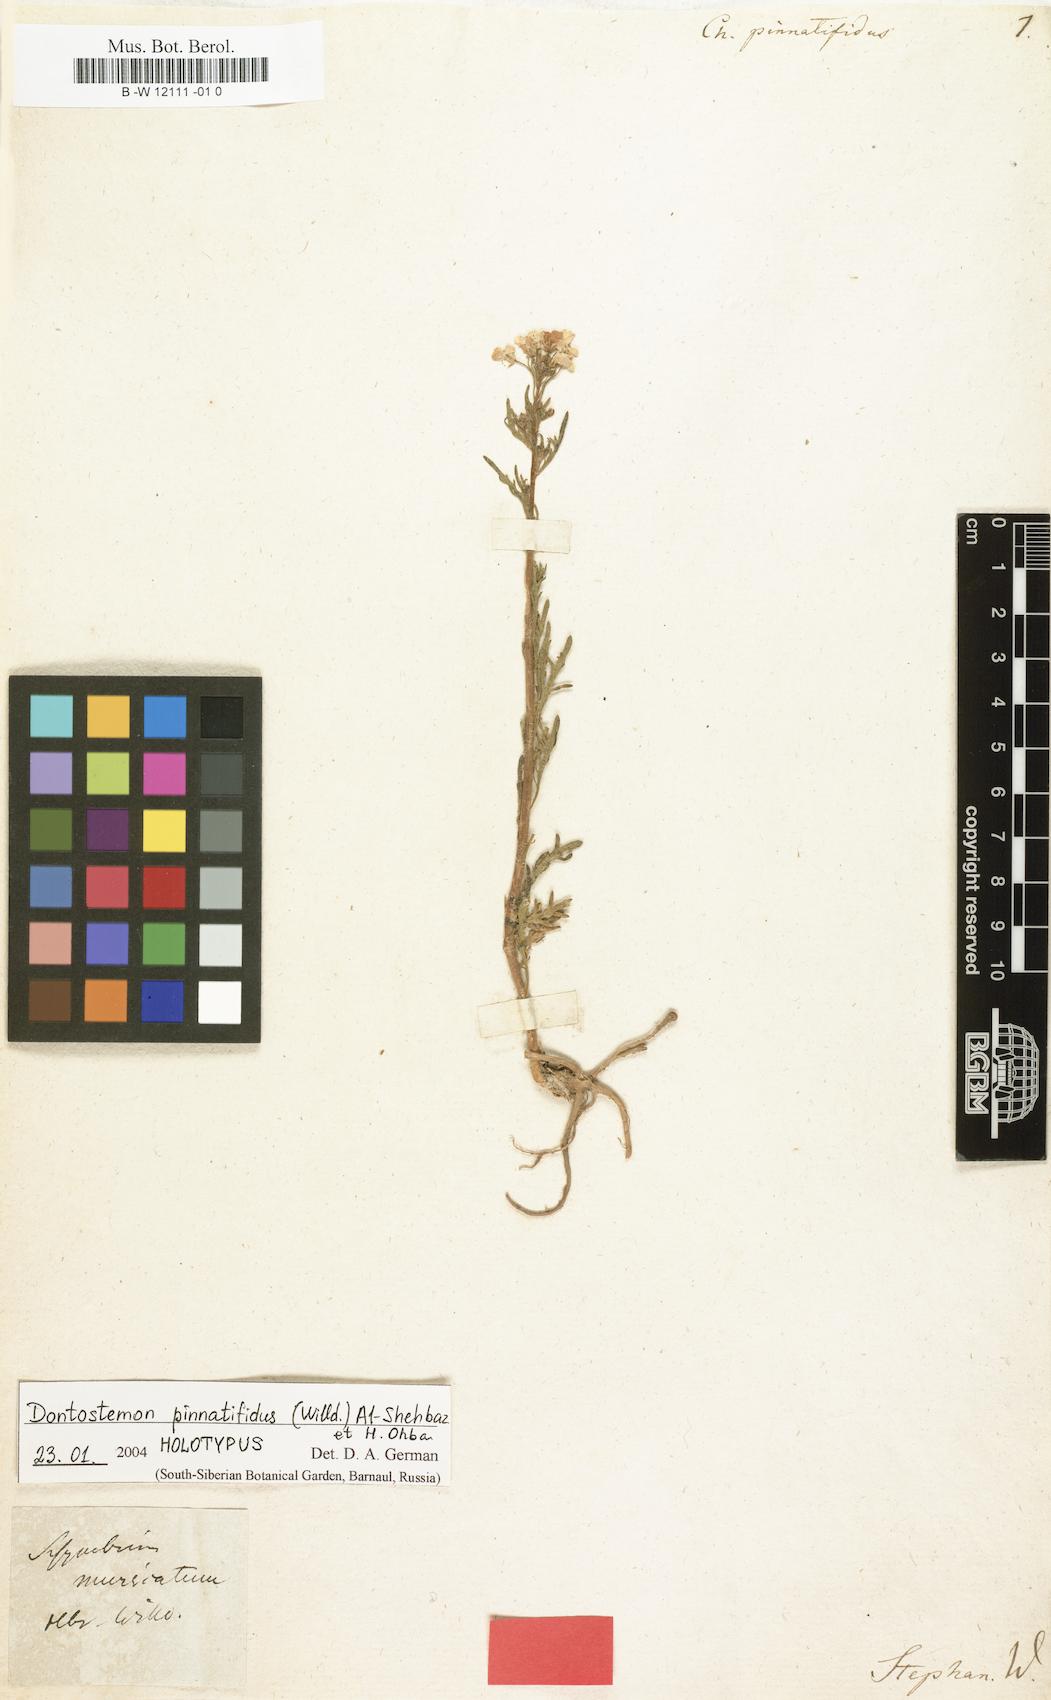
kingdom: Plantae
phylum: Tracheophyta
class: Magnoliopsida
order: Brassicales
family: Brassicaceae
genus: Dontostemon
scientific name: Dontostemon pinnatifidus
